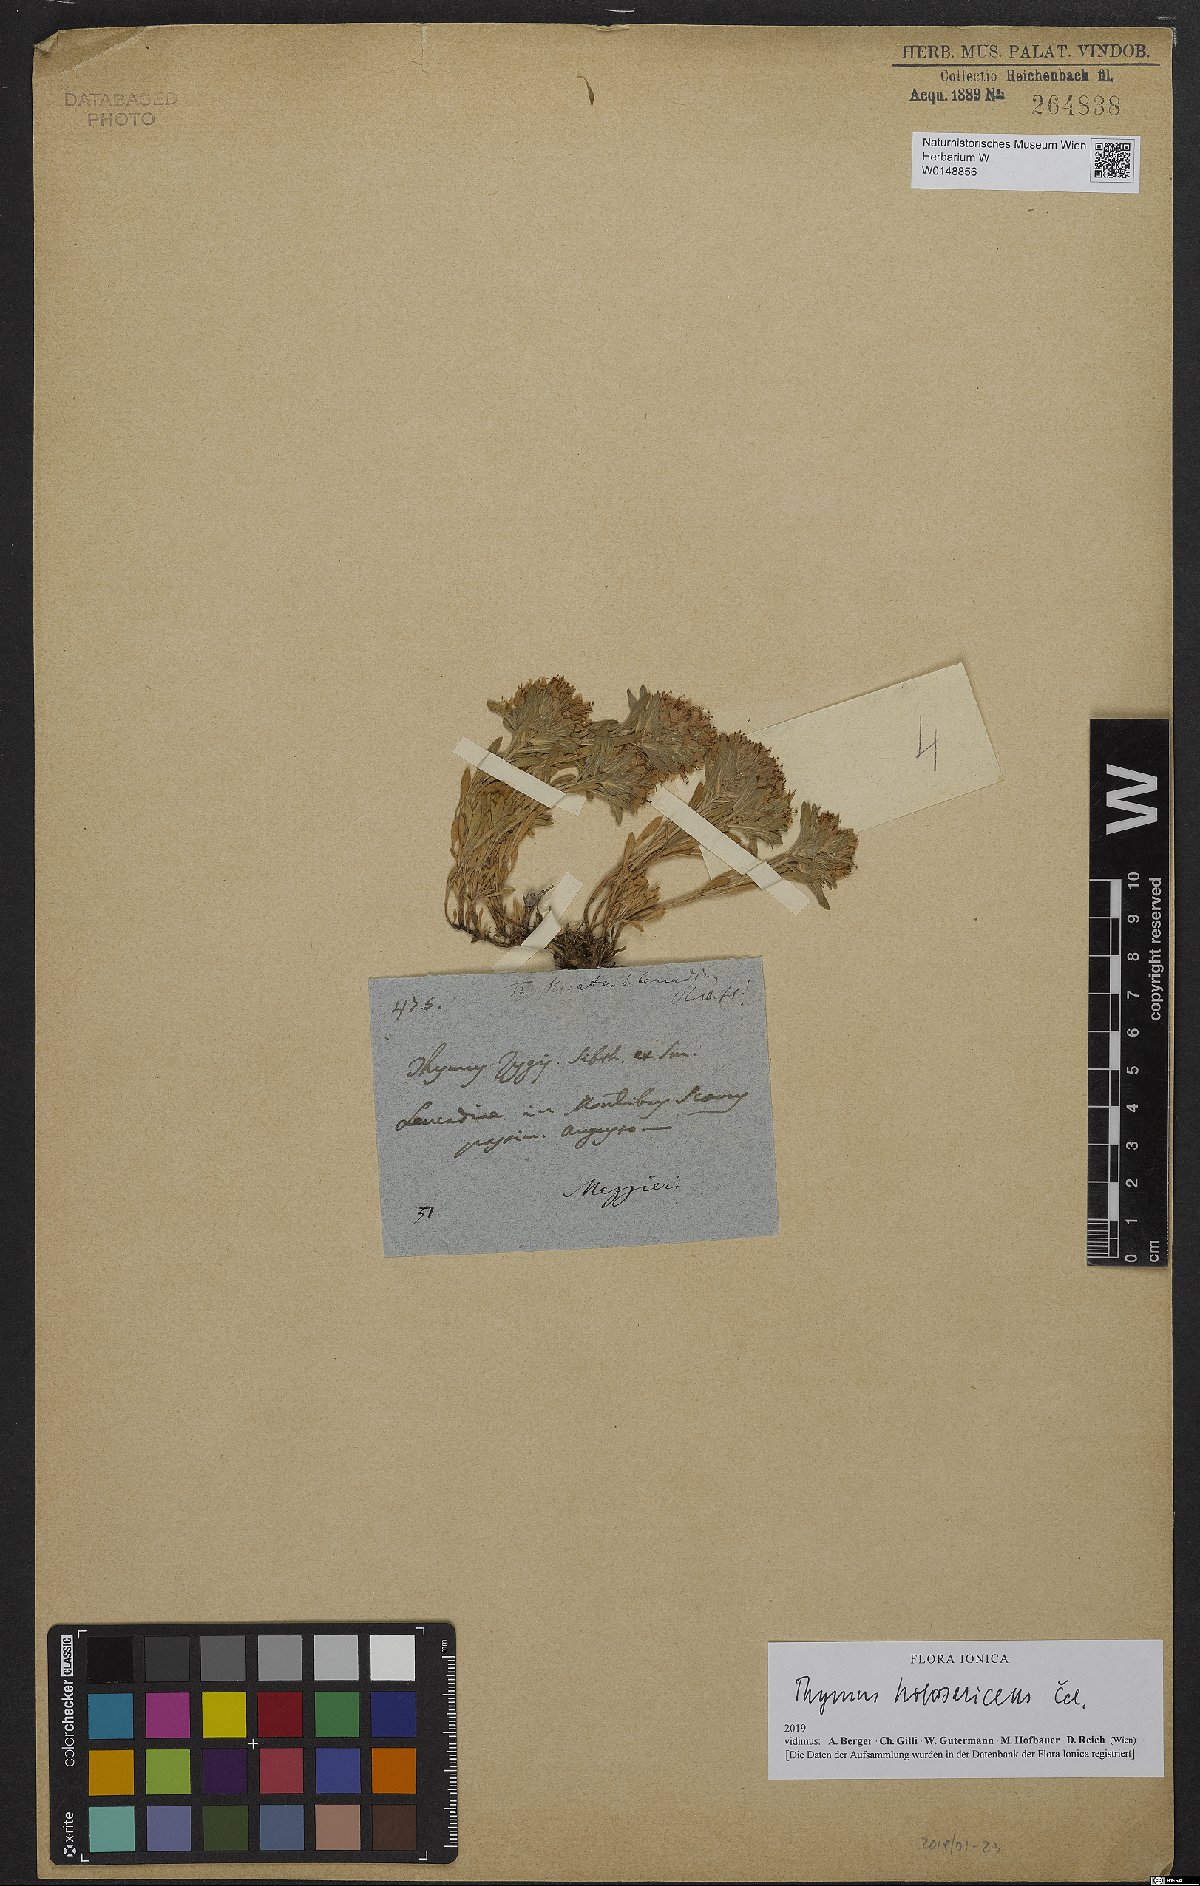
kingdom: Plantae
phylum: Tracheophyta
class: Magnoliopsida
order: Lamiales
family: Lamiaceae
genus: Thymus
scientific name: Thymus holosericeus
